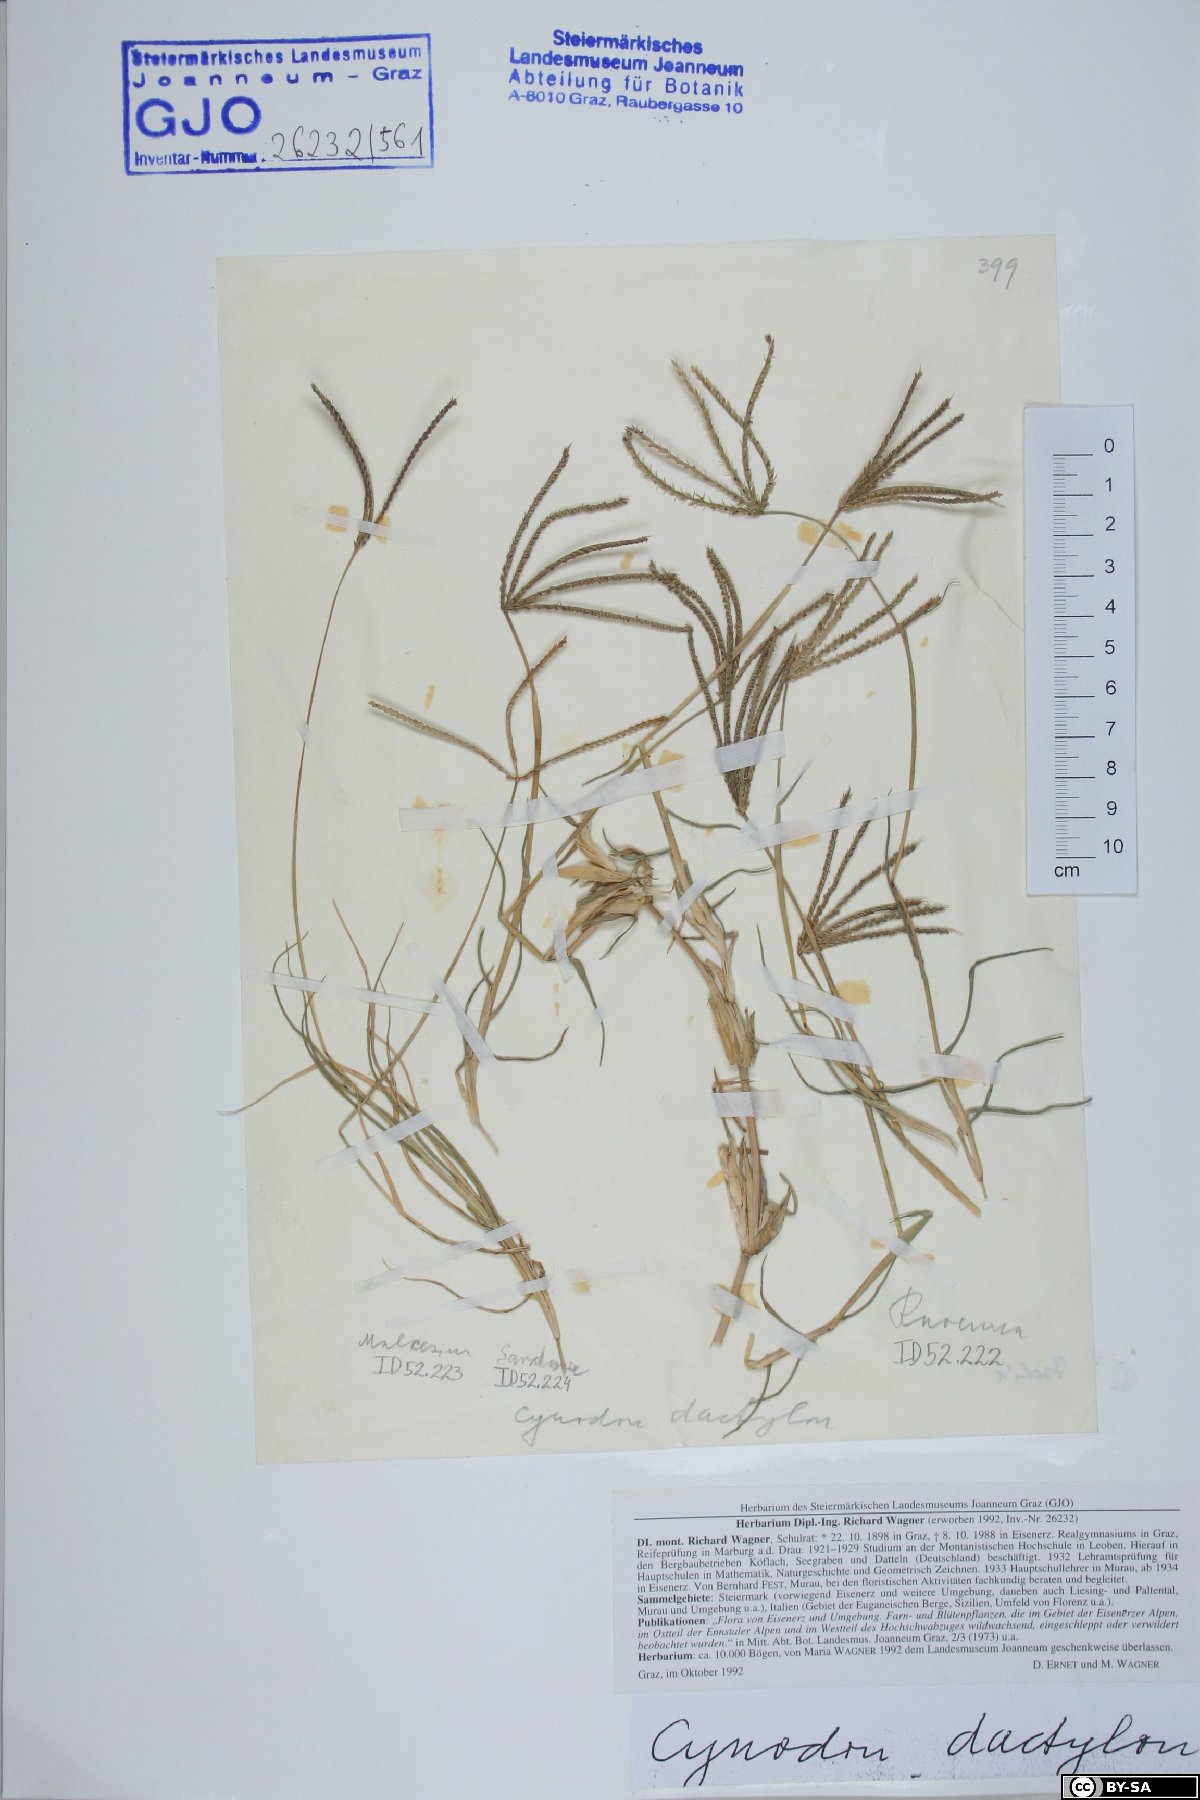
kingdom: Plantae
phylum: Tracheophyta
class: Liliopsida
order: Poales
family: Poaceae
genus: Cynodon
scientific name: Cynodon dactylon
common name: Bermuda grass
